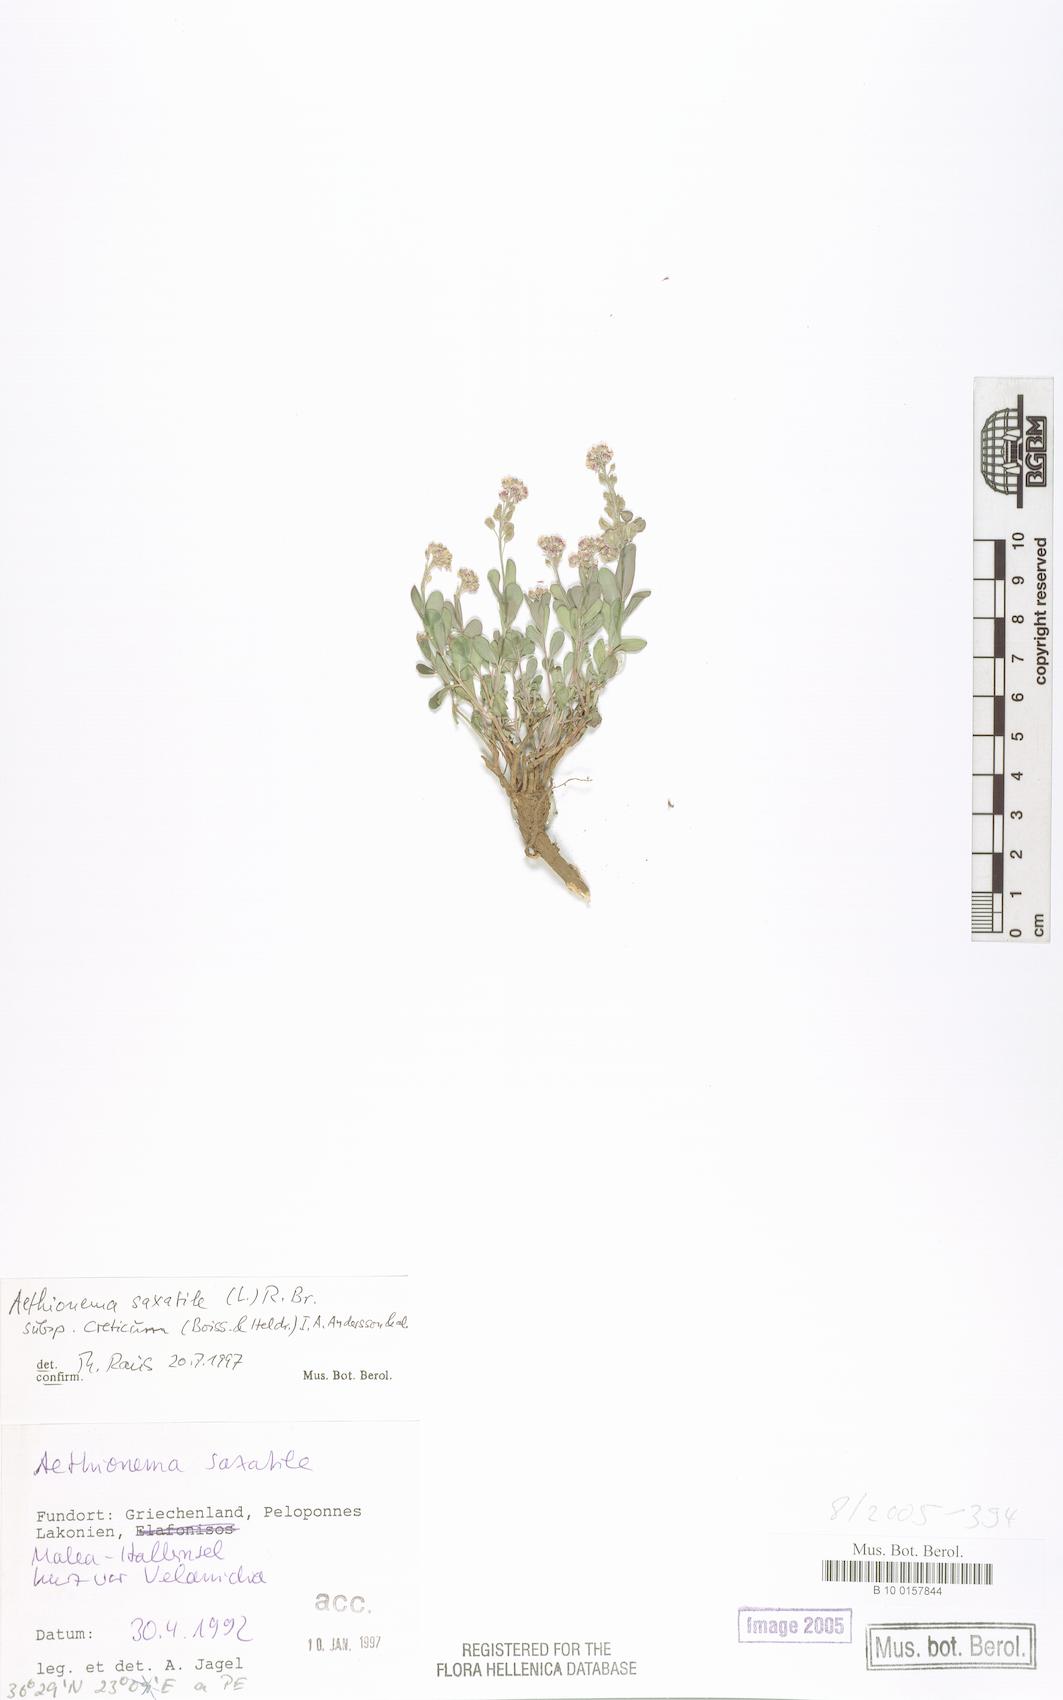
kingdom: Plantae
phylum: Tracheophyta
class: Magnoliopsida
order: Brassicales
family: Brassicaceae
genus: Aethionema
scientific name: Aethionema saxatile
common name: Burnt candytuft
